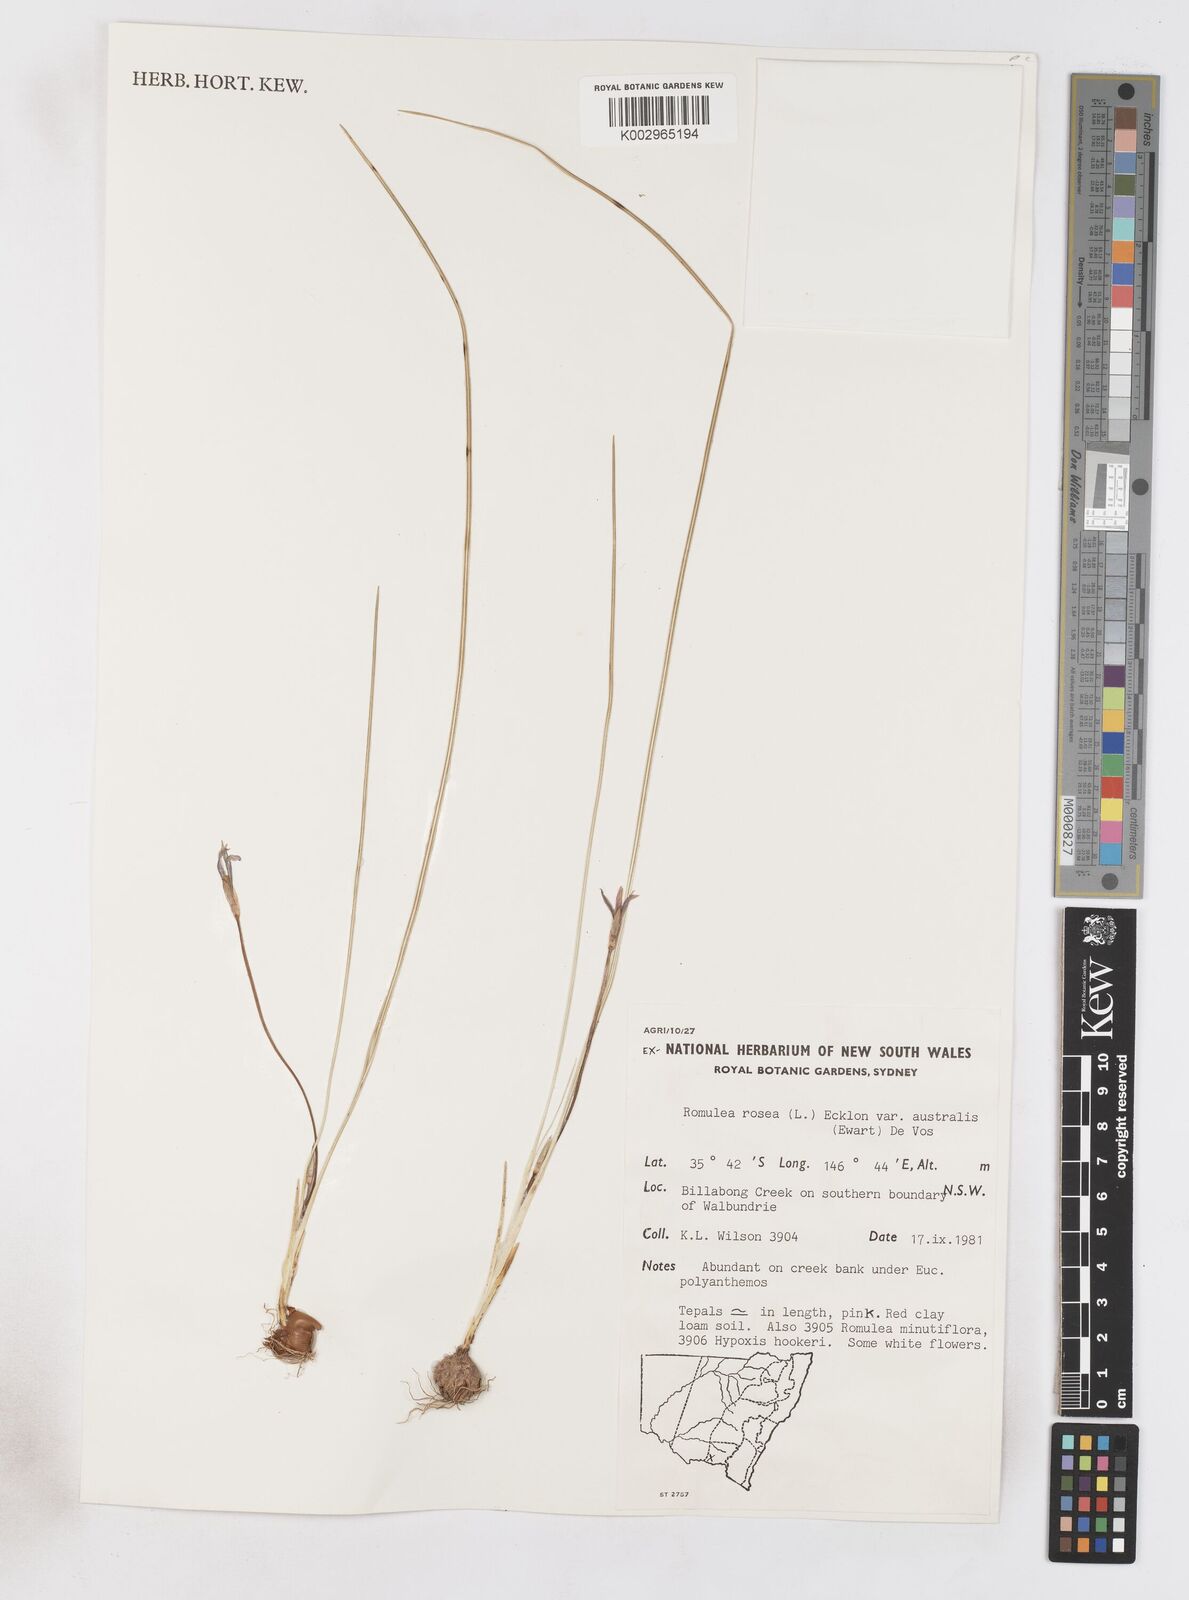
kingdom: Plantae
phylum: Tracheophyta
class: Liliopsida
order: Asparagales
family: Iridaceae
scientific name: Iridaceae
